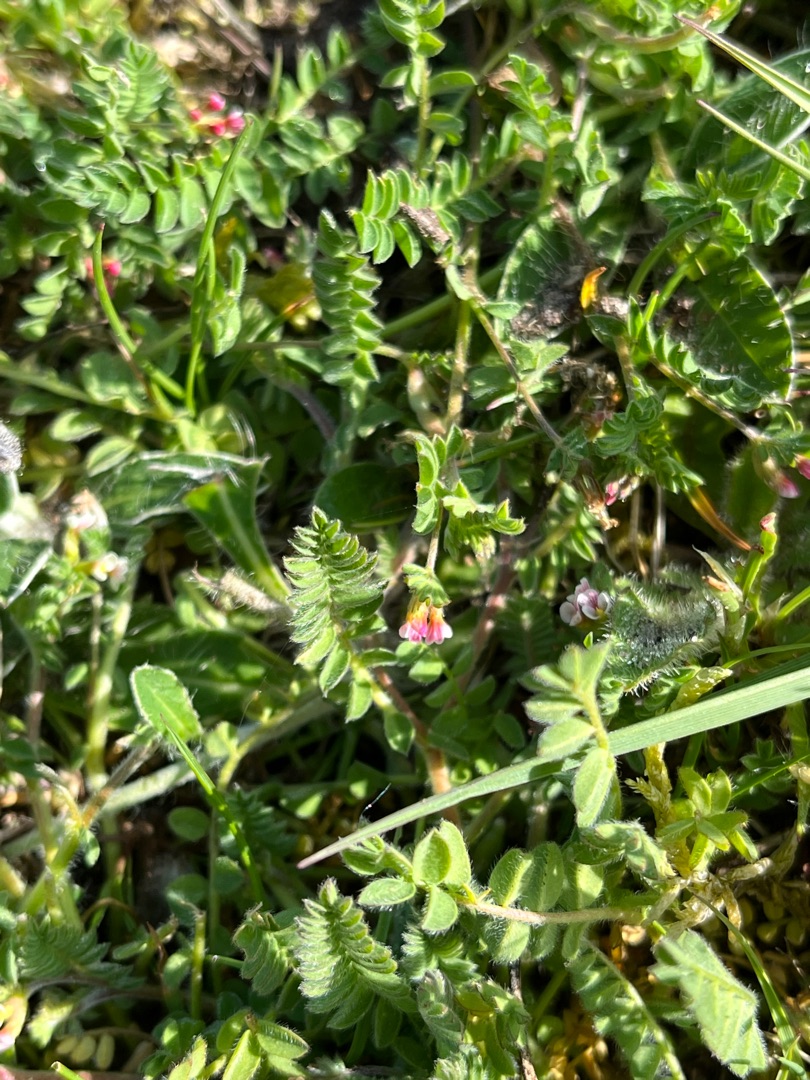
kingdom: Plantae
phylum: Tracheophyta
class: Magnoliopsida
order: Fabales
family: Fabaceae
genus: Ornithopus
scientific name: Ornithopus perpusillus
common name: Liden fugleklo
